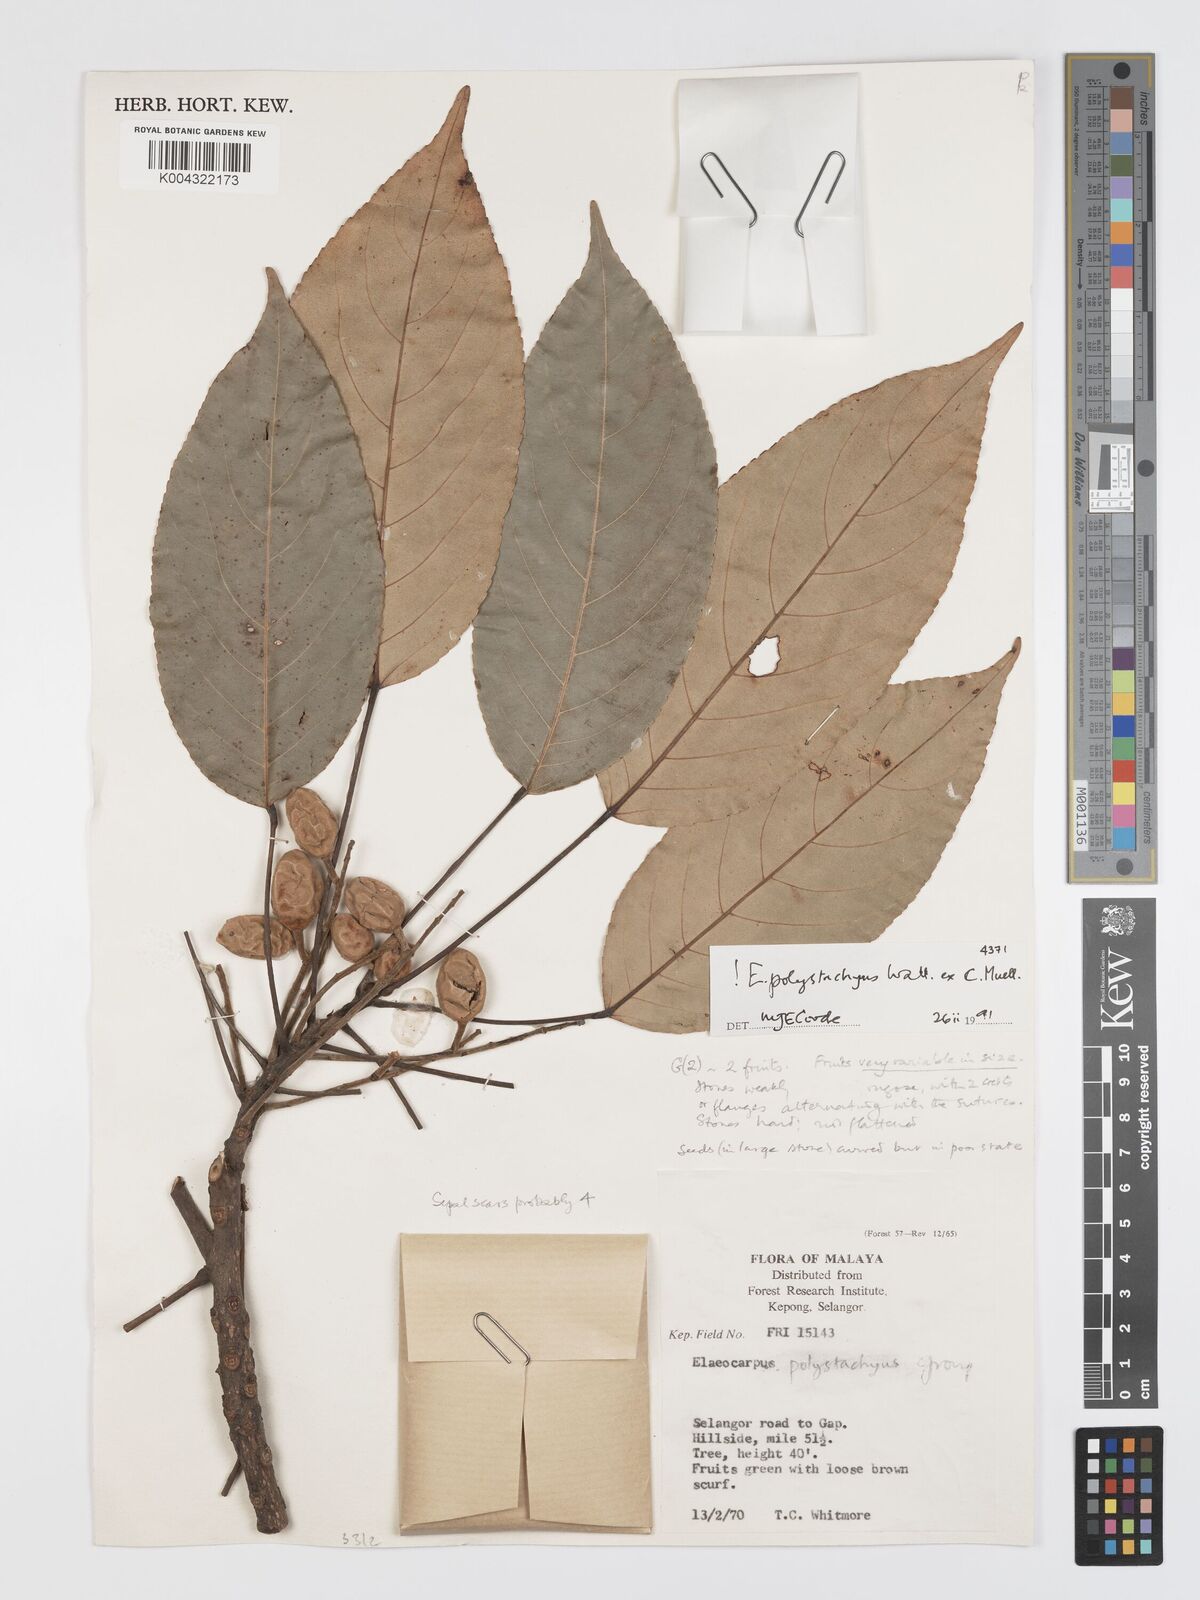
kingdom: Plantae
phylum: Tracheophyta
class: Magnoliopsida
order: Oxalidales
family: Elaeocarpaceae
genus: Elaeocarpus
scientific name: Elaeocarpus polystachyus
